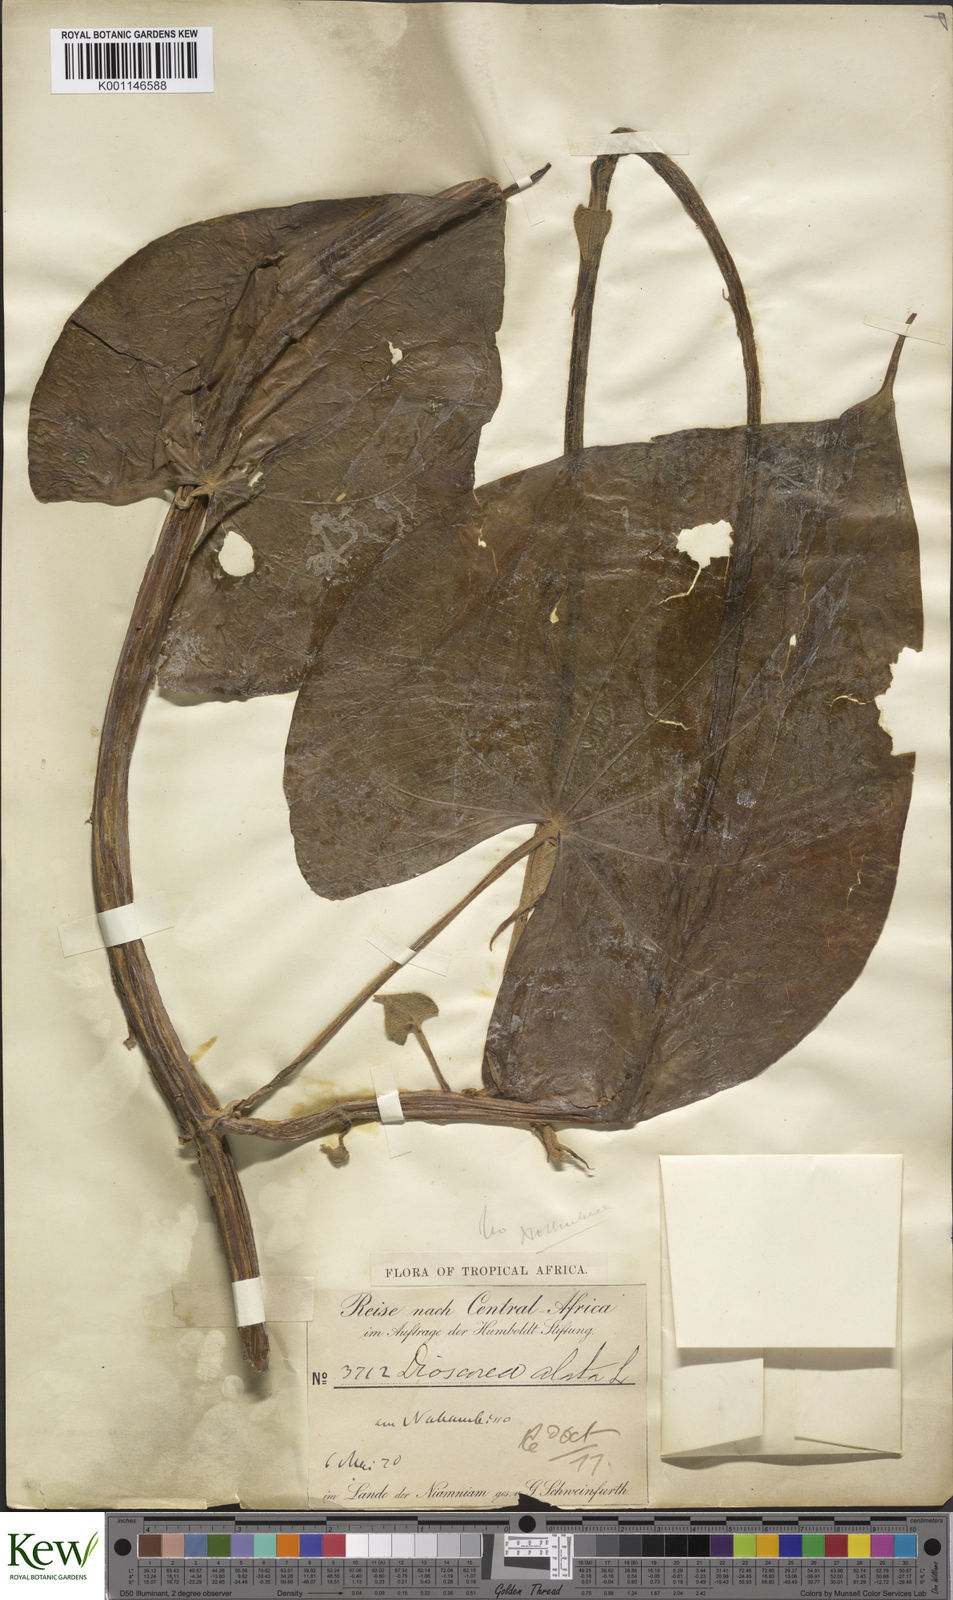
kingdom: Plantae
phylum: Tracheophyta
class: Liliopsida
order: Dioscoreales
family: Dioscoreaceae
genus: Dioscorea
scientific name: Dioscorea preussii
